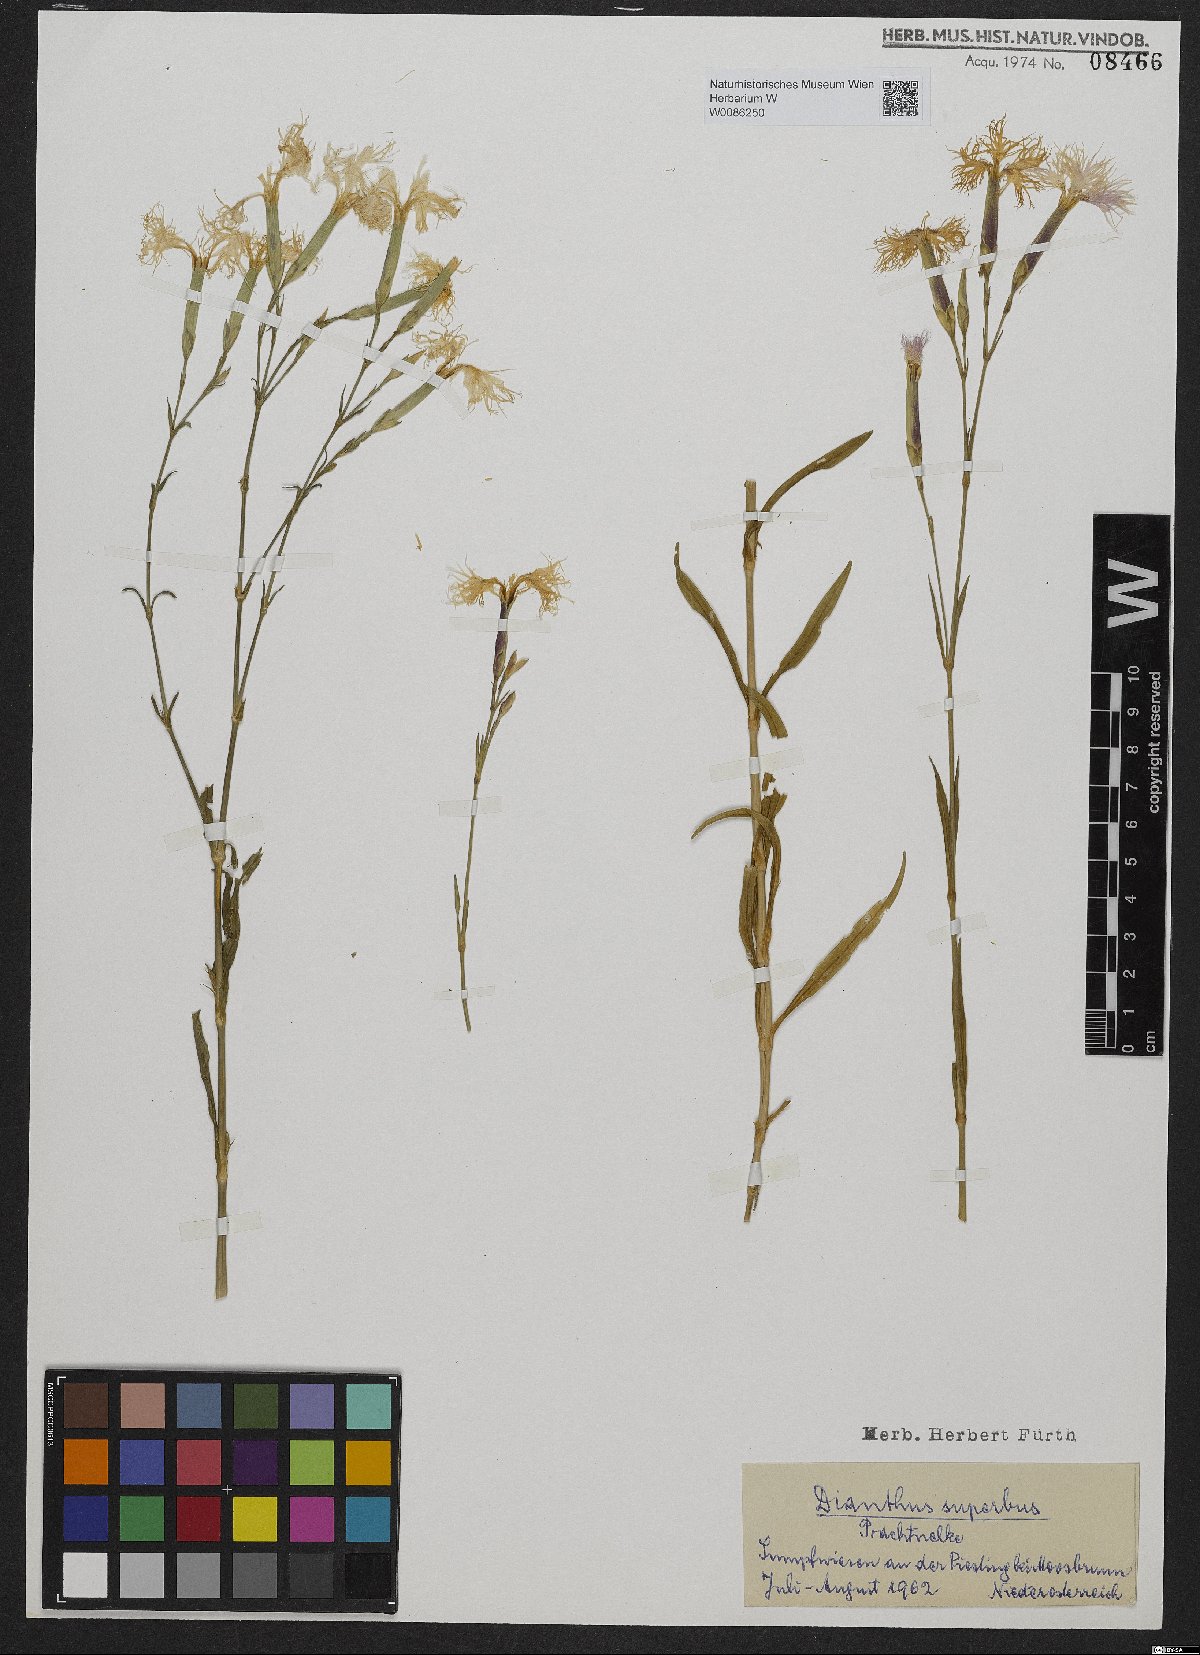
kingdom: Plantae
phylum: Tracheophyta
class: Magnoliopsida
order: Caryophyllales
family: Caryophyllaceae
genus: Dianthus
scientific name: Dianthus superbus
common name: Fringed pink
